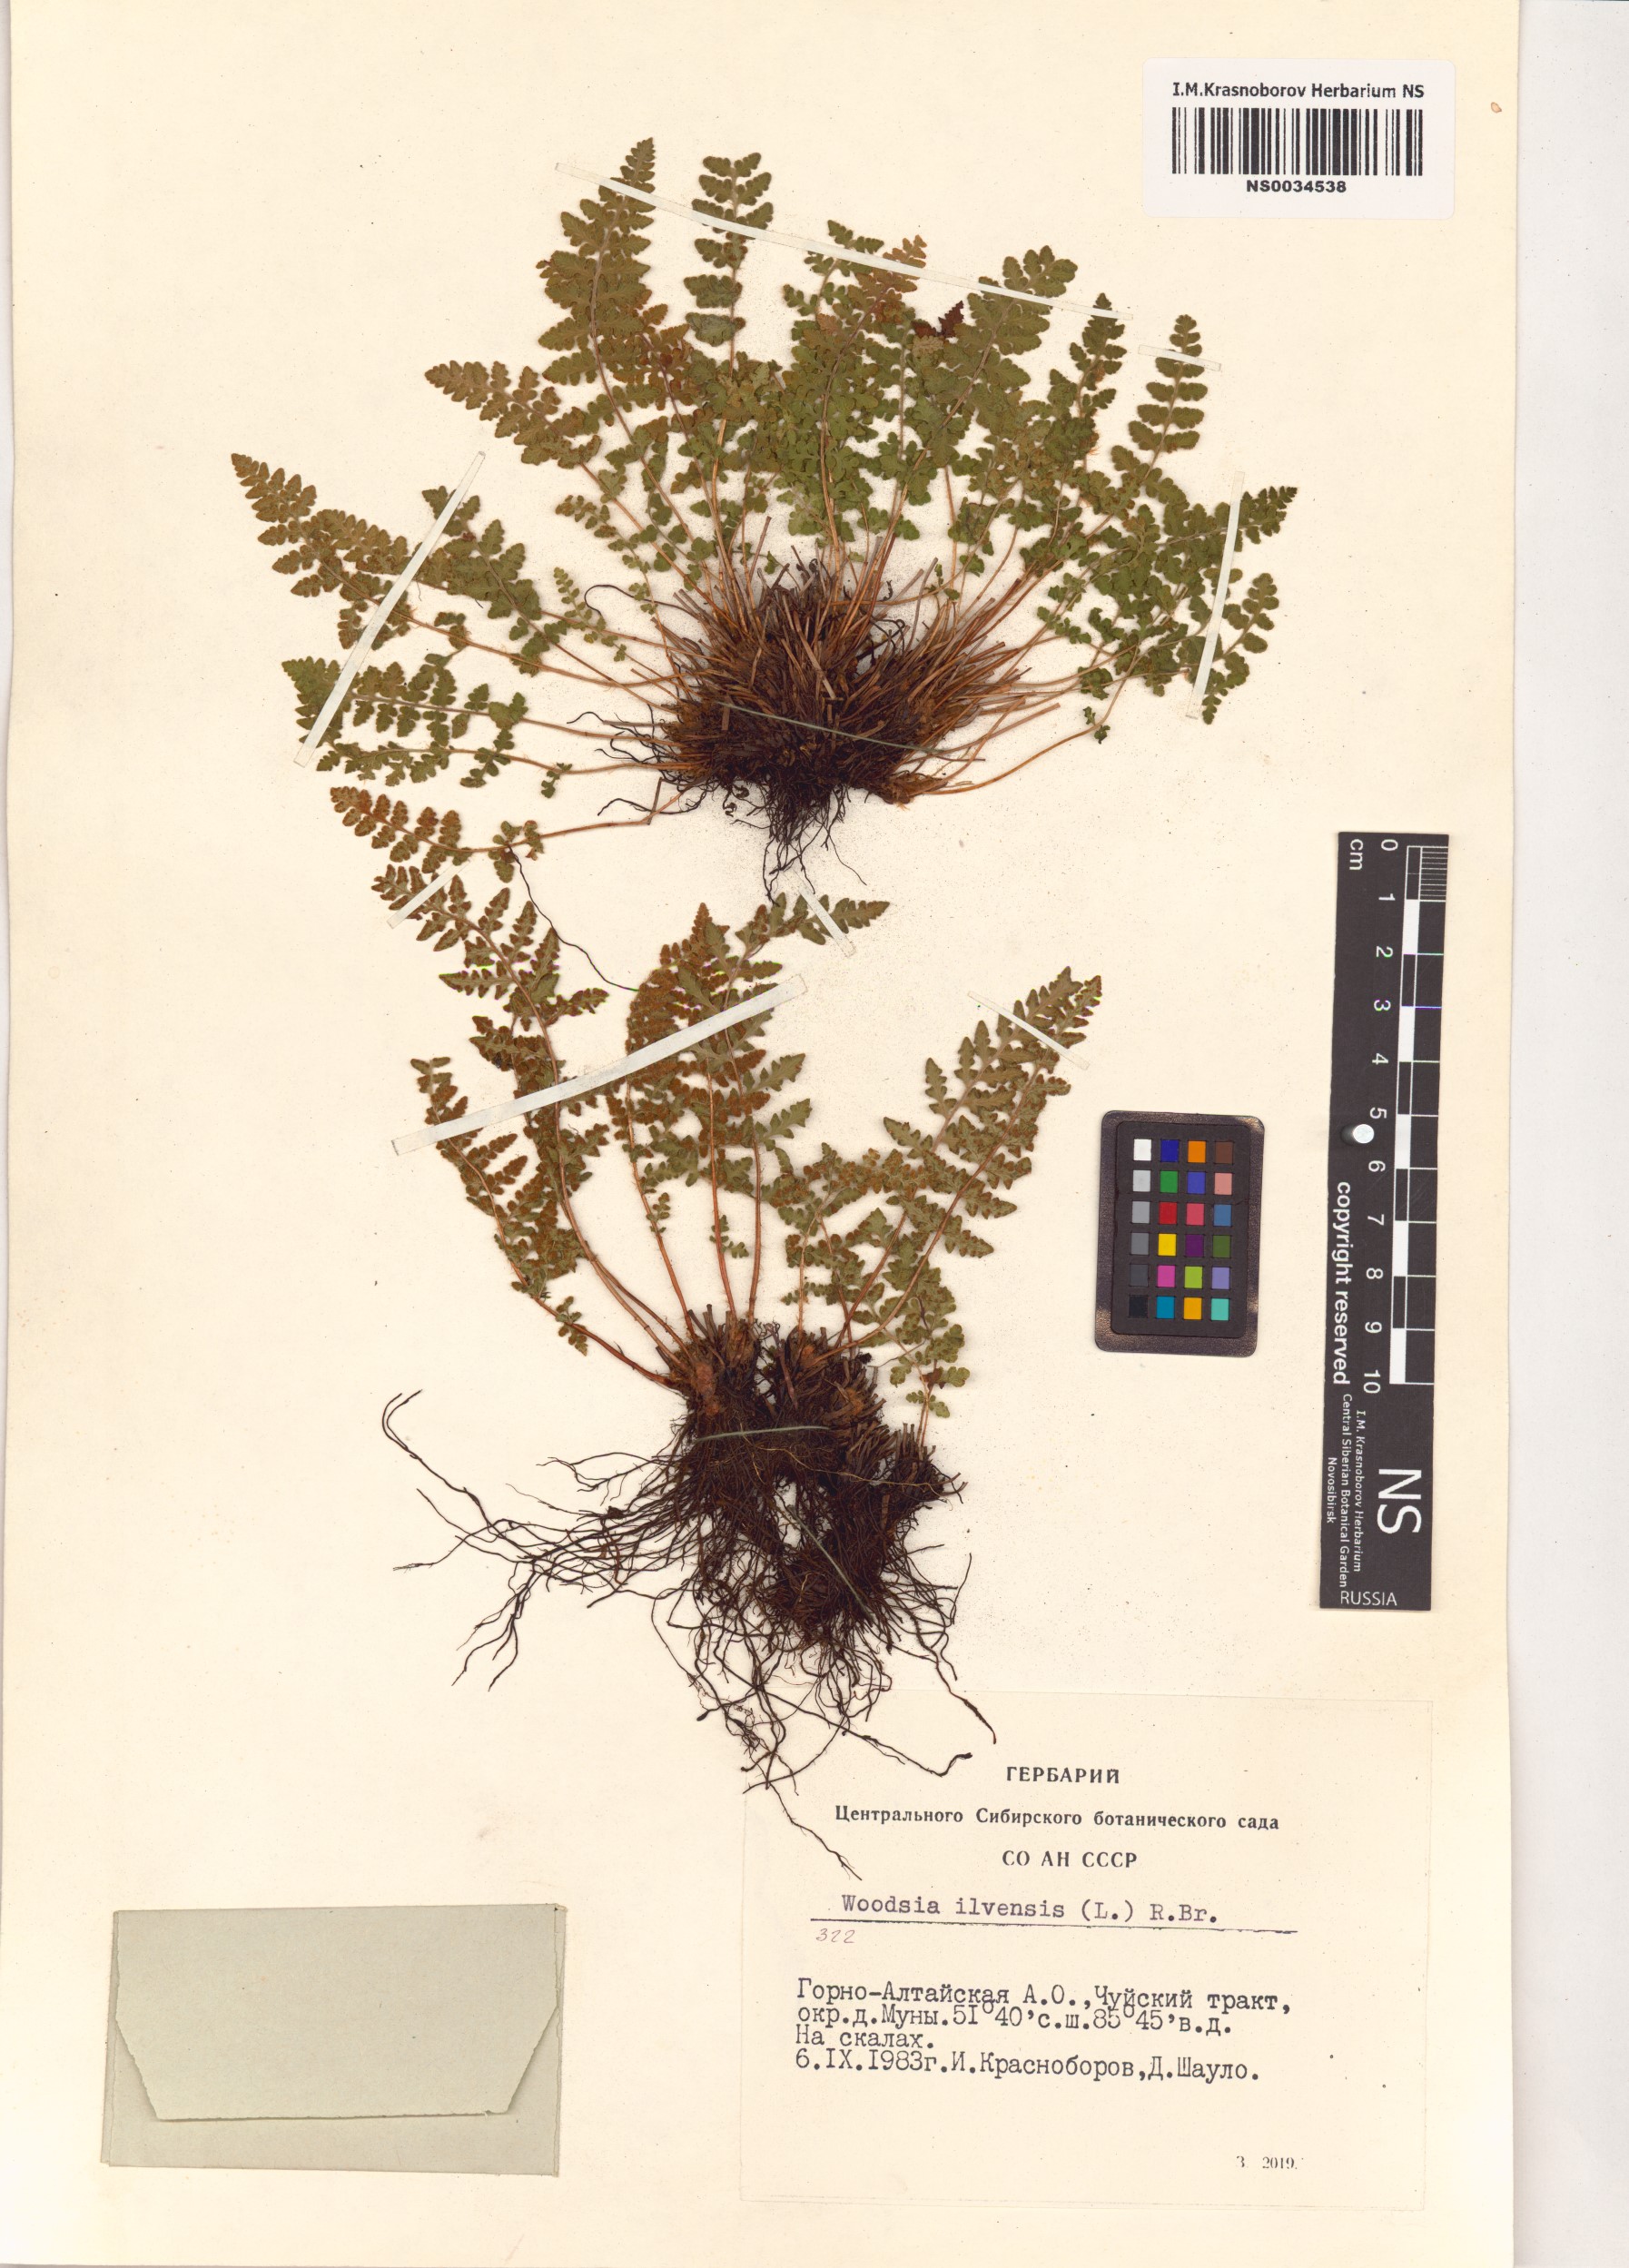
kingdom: Plantae
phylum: Tracheophyta
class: Polypodiopsida
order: Polypodiales
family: Woodsiaceae
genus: Woodsia
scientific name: Woodsia ilvensis
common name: Fragrant woodsia
